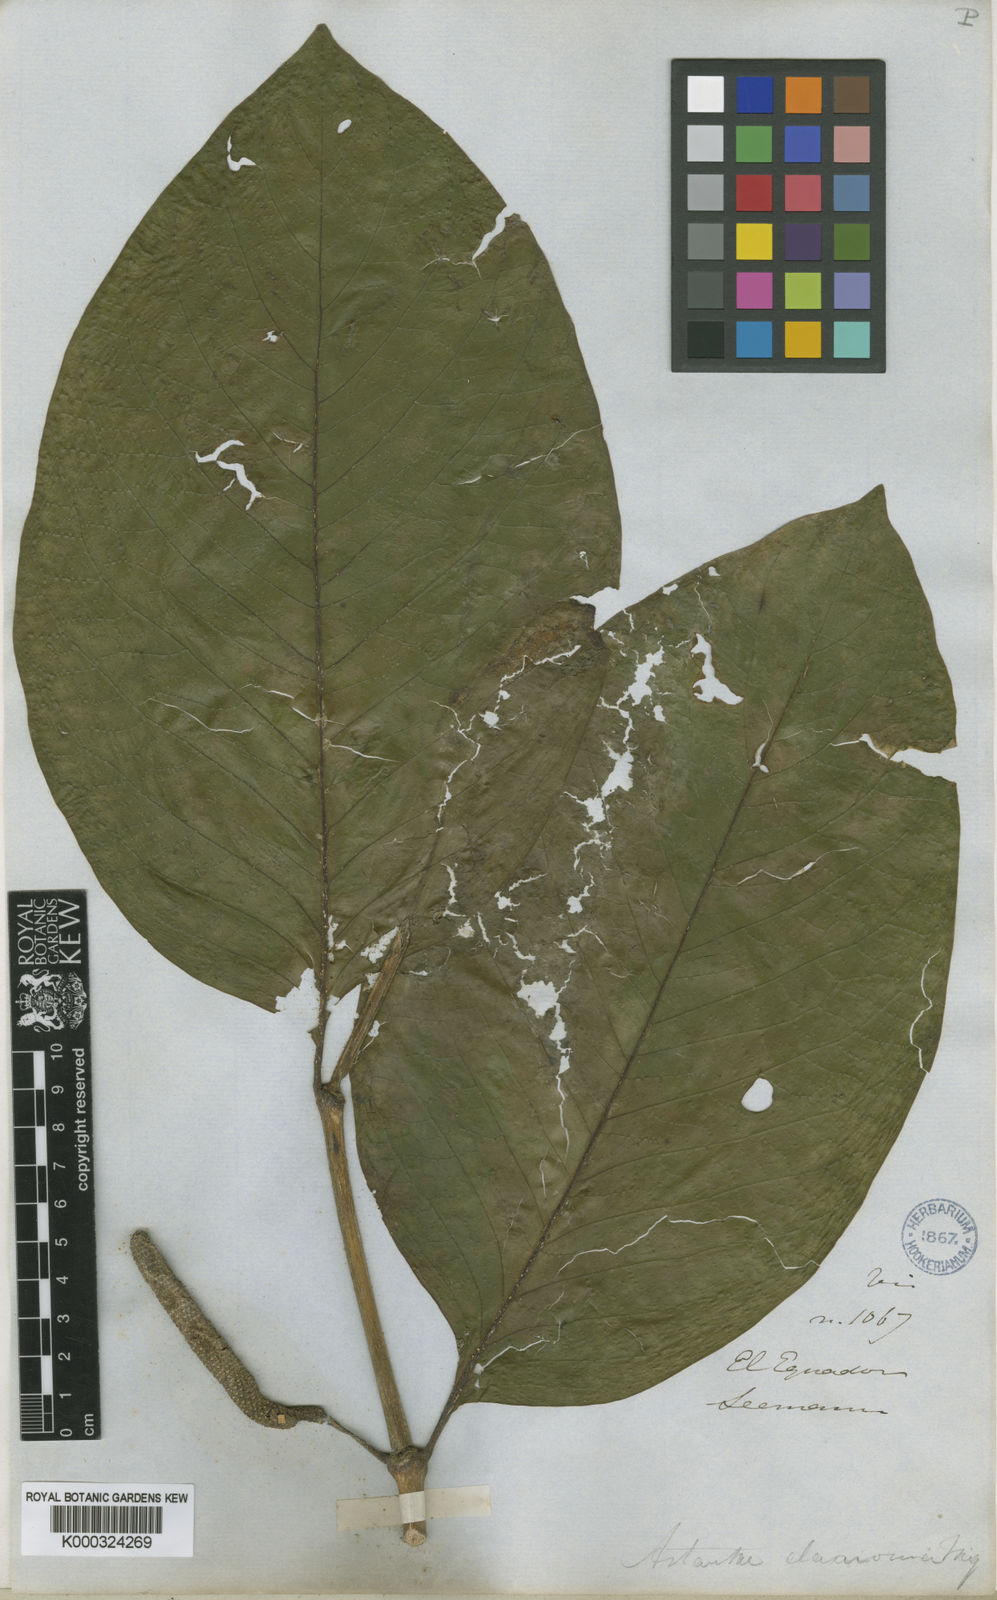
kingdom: Plantae
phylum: Tracheophyta
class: Magnoliopsida
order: Piperales
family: Piperaceae
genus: Piper
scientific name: Piper calocoma
